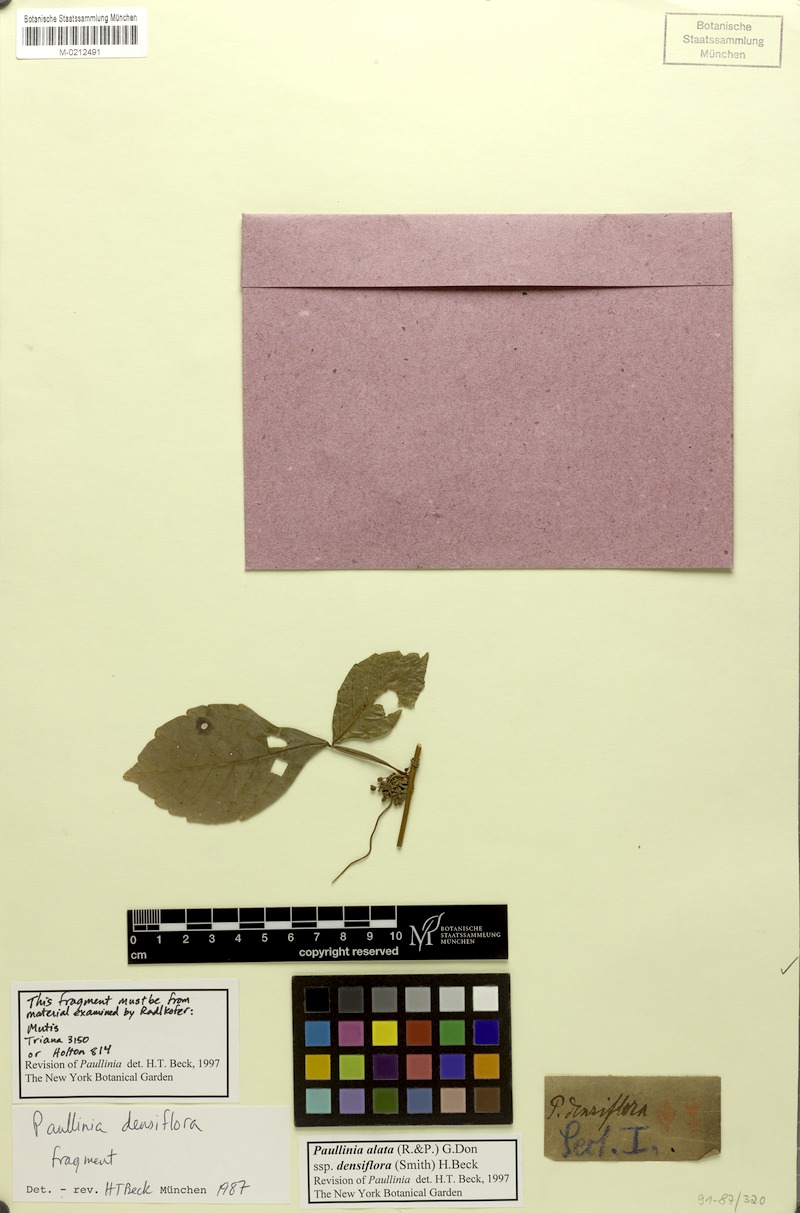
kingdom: Plantae
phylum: Tracheophyta
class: Magnoliopsida
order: Sapindales
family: Sapindaceae
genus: Paullinia
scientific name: Paullinia densiflora
